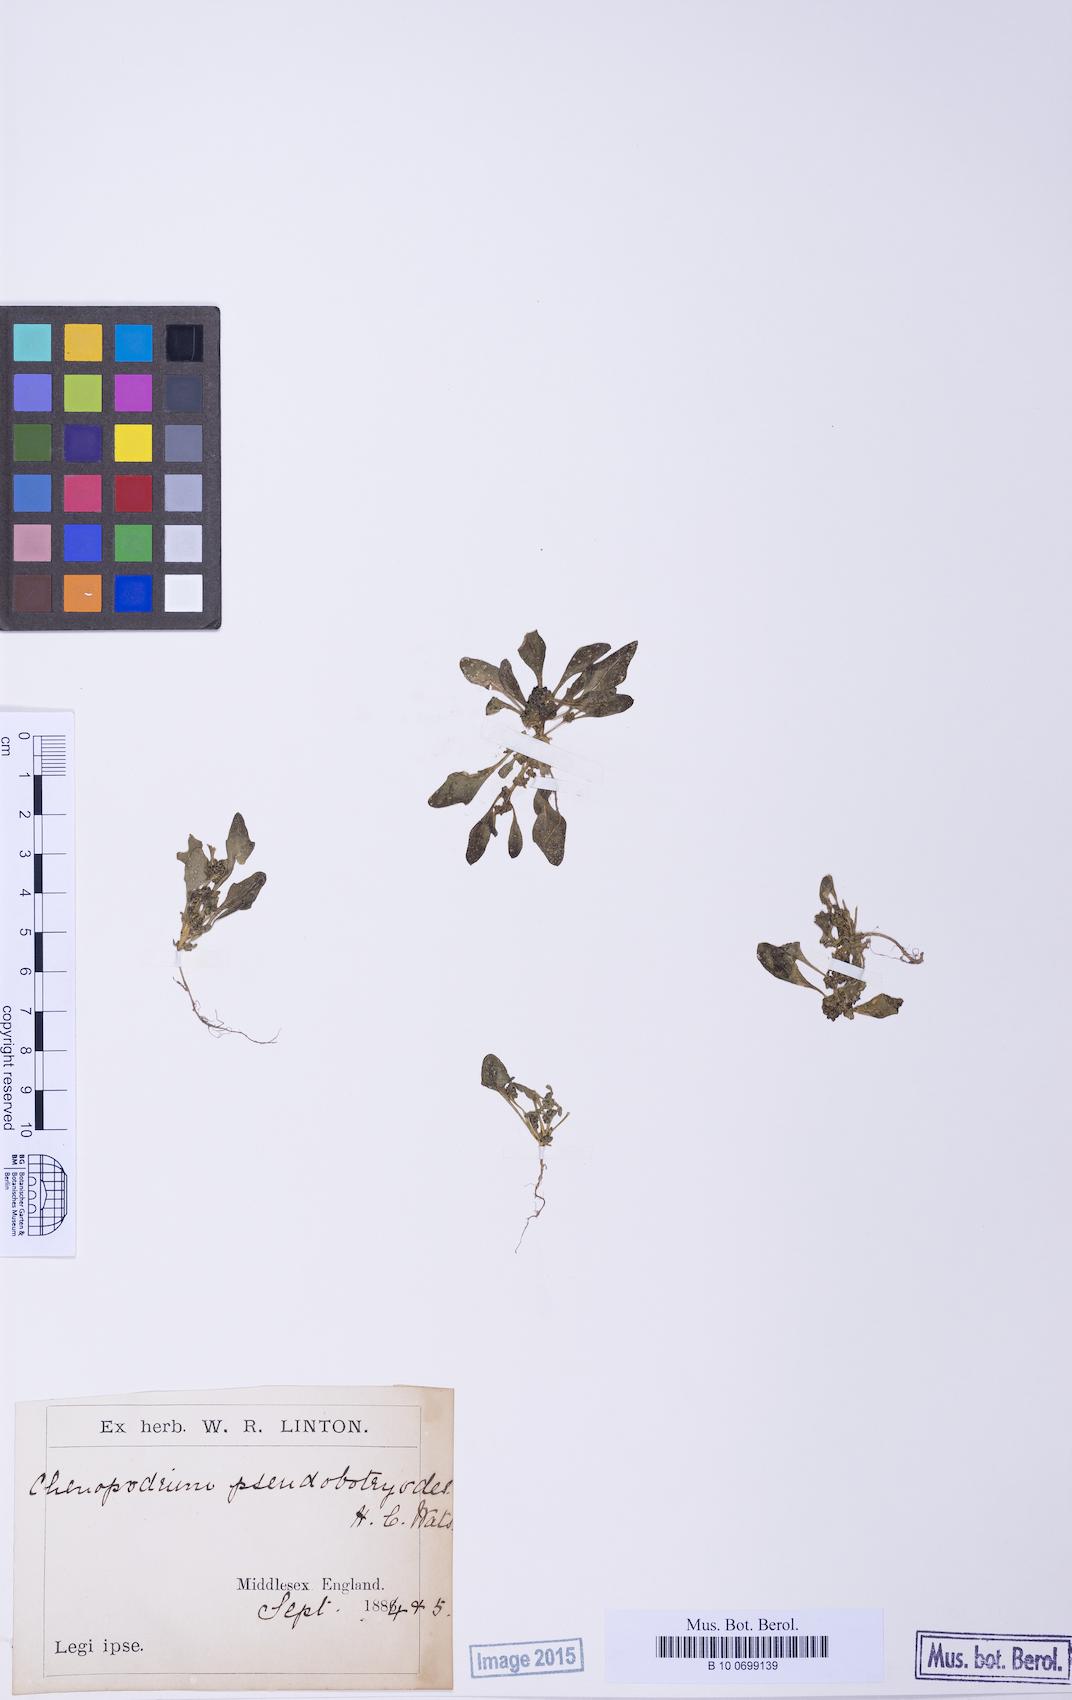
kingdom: Plantae
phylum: Tracheophyta
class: Magnoliopsida
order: Caryophyllales
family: Amaranthaceae
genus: Oxybasis
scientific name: Oxybasis rubra
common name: Red goosefoot
